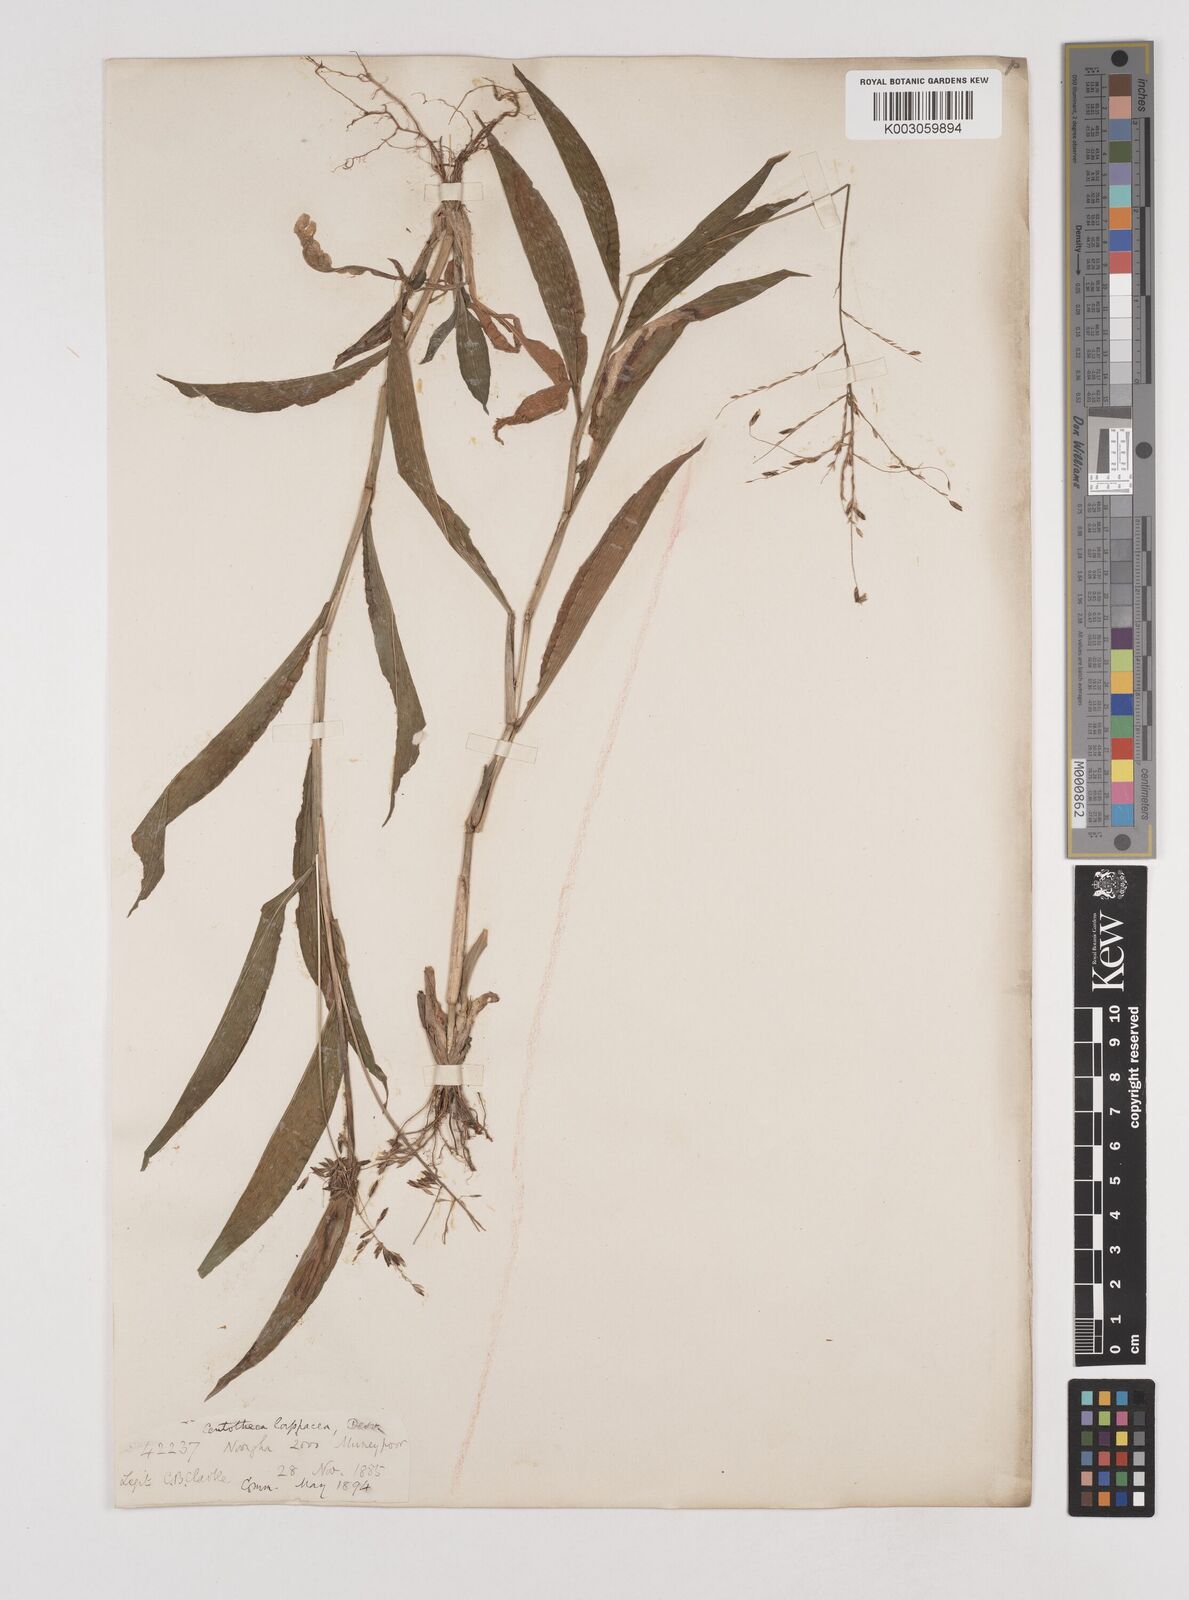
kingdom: Plantae
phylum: Tracheophyta
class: Liliopsida
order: Poales
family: Poaceae
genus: Centotheca
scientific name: Centotheca lappacea
